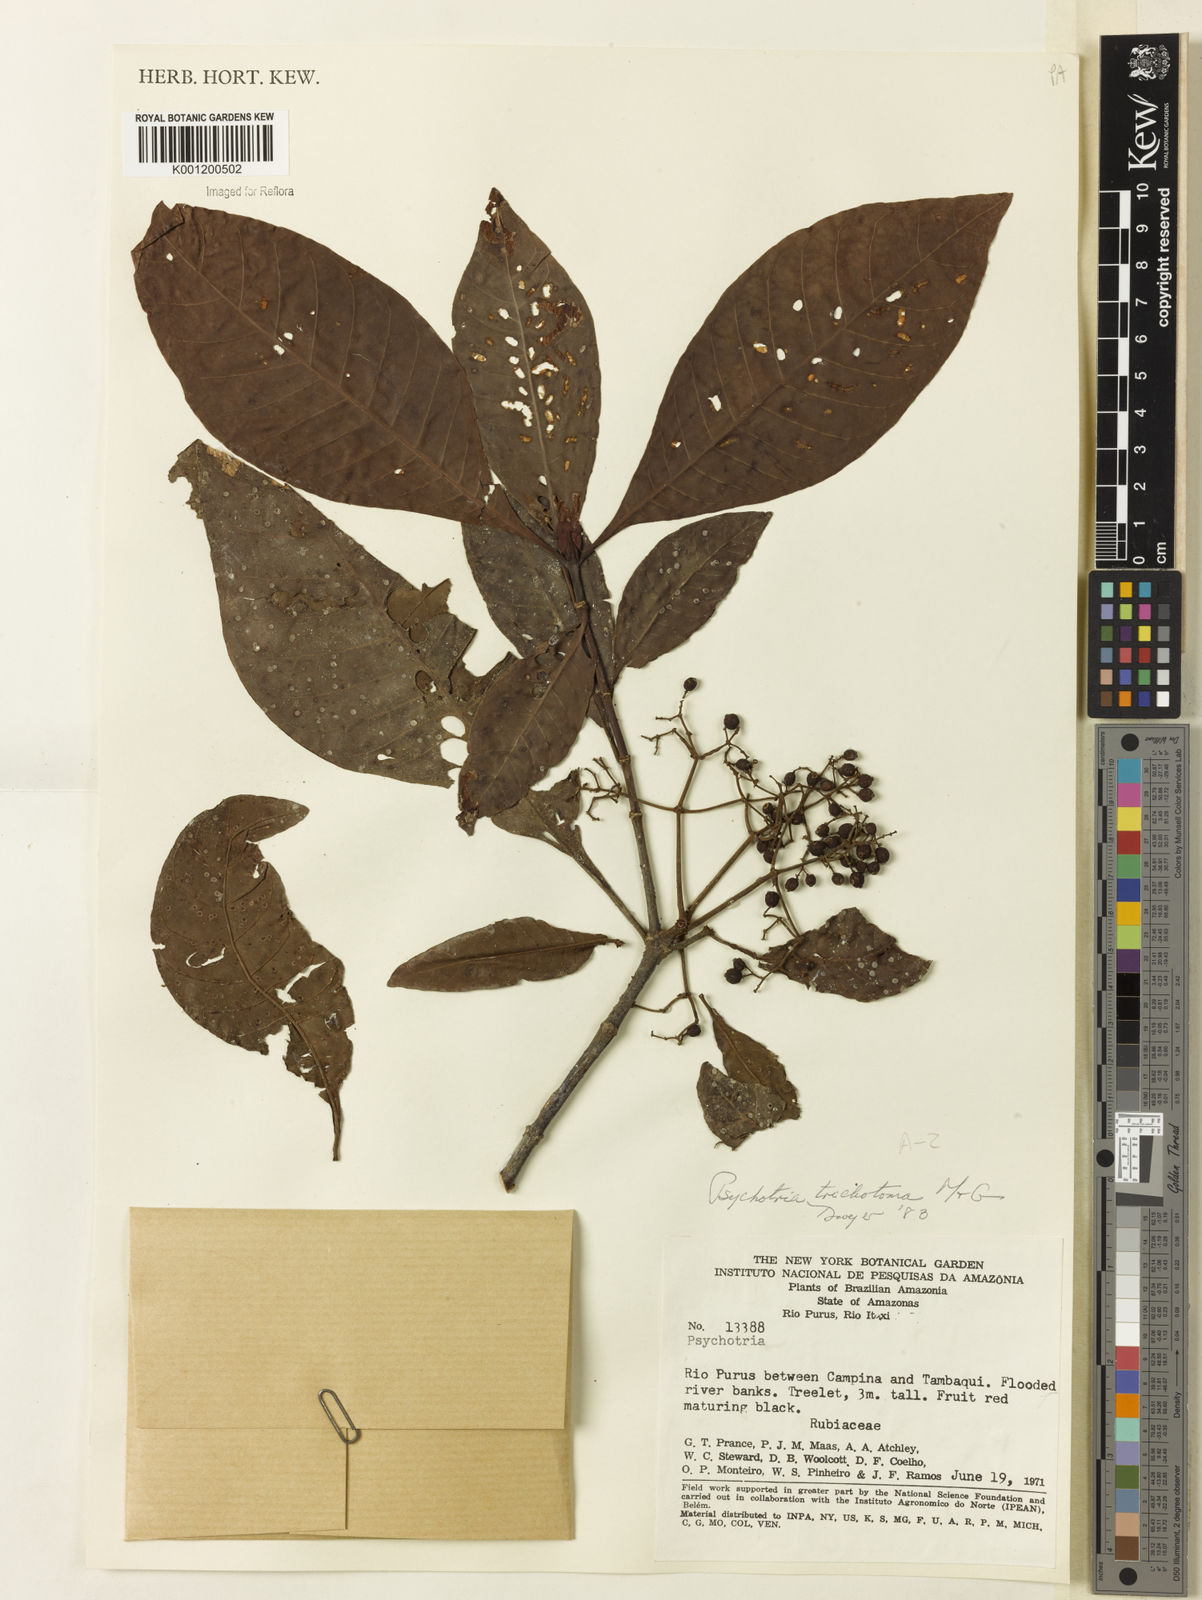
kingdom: Plantae
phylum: Tracheophyta
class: Magnoliopsida
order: Gentianales
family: Rubiaceae
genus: Psychotria
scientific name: Psychotria trichotoma
